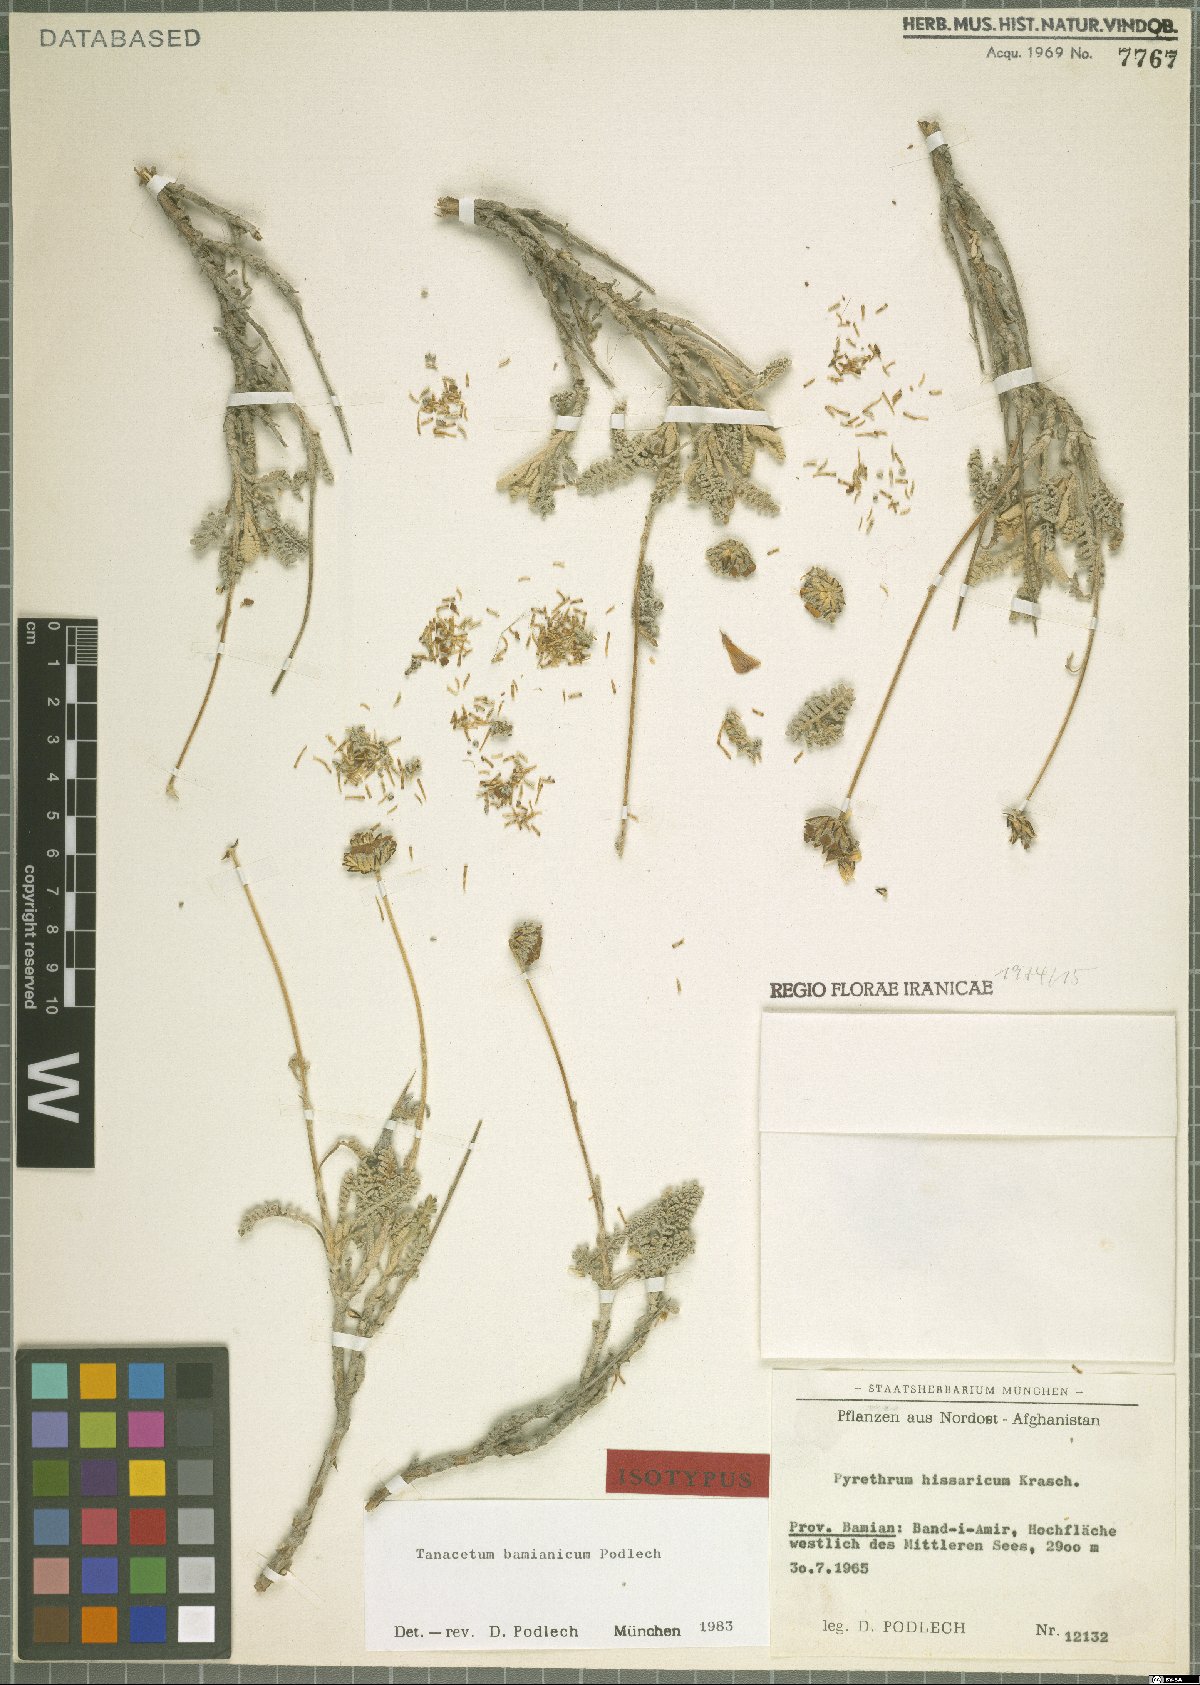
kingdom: Plantae
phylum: Tracheophyta
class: Magnoliopsida
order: Asterales
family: Asteraceae
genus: Tanacetum
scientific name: Tanacetum bamianicum
